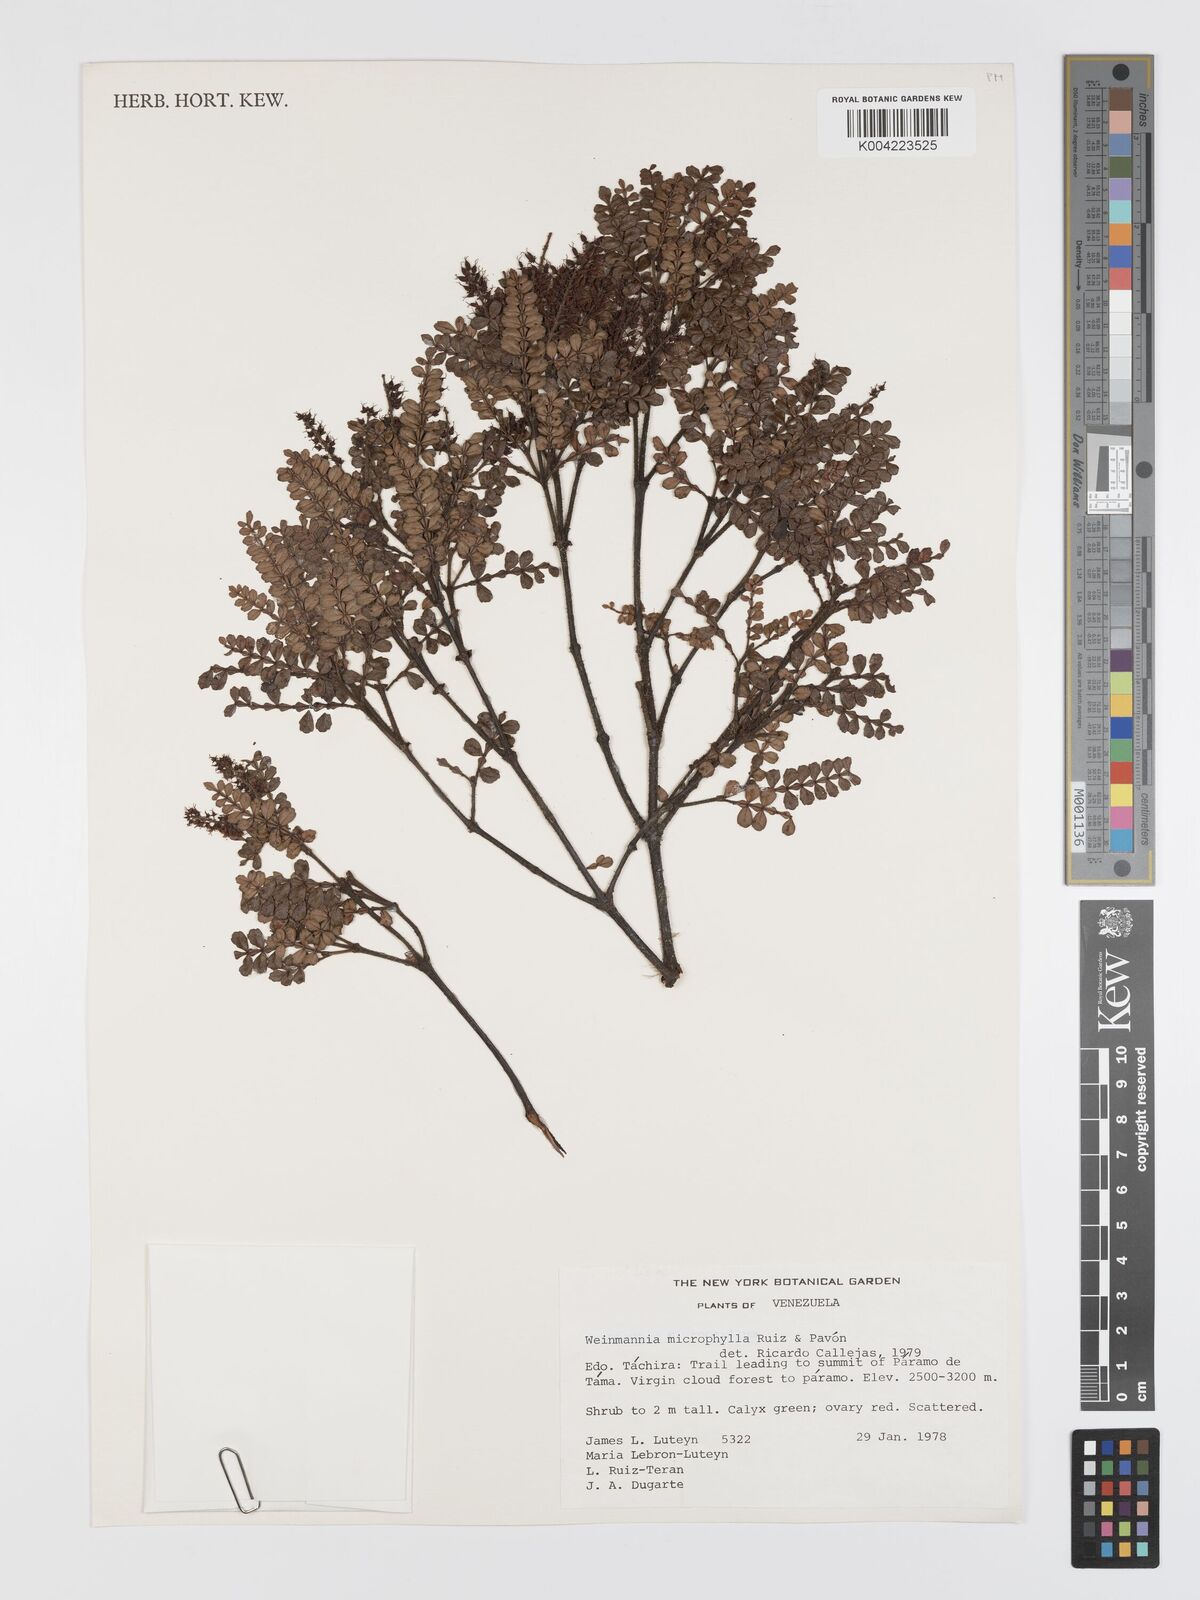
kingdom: Plantae
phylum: Tracheophyta
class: Magnoliopsida
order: Oxalidales
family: Cunoniaceae
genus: Weinmannia
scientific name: Weinmannia microphylla
